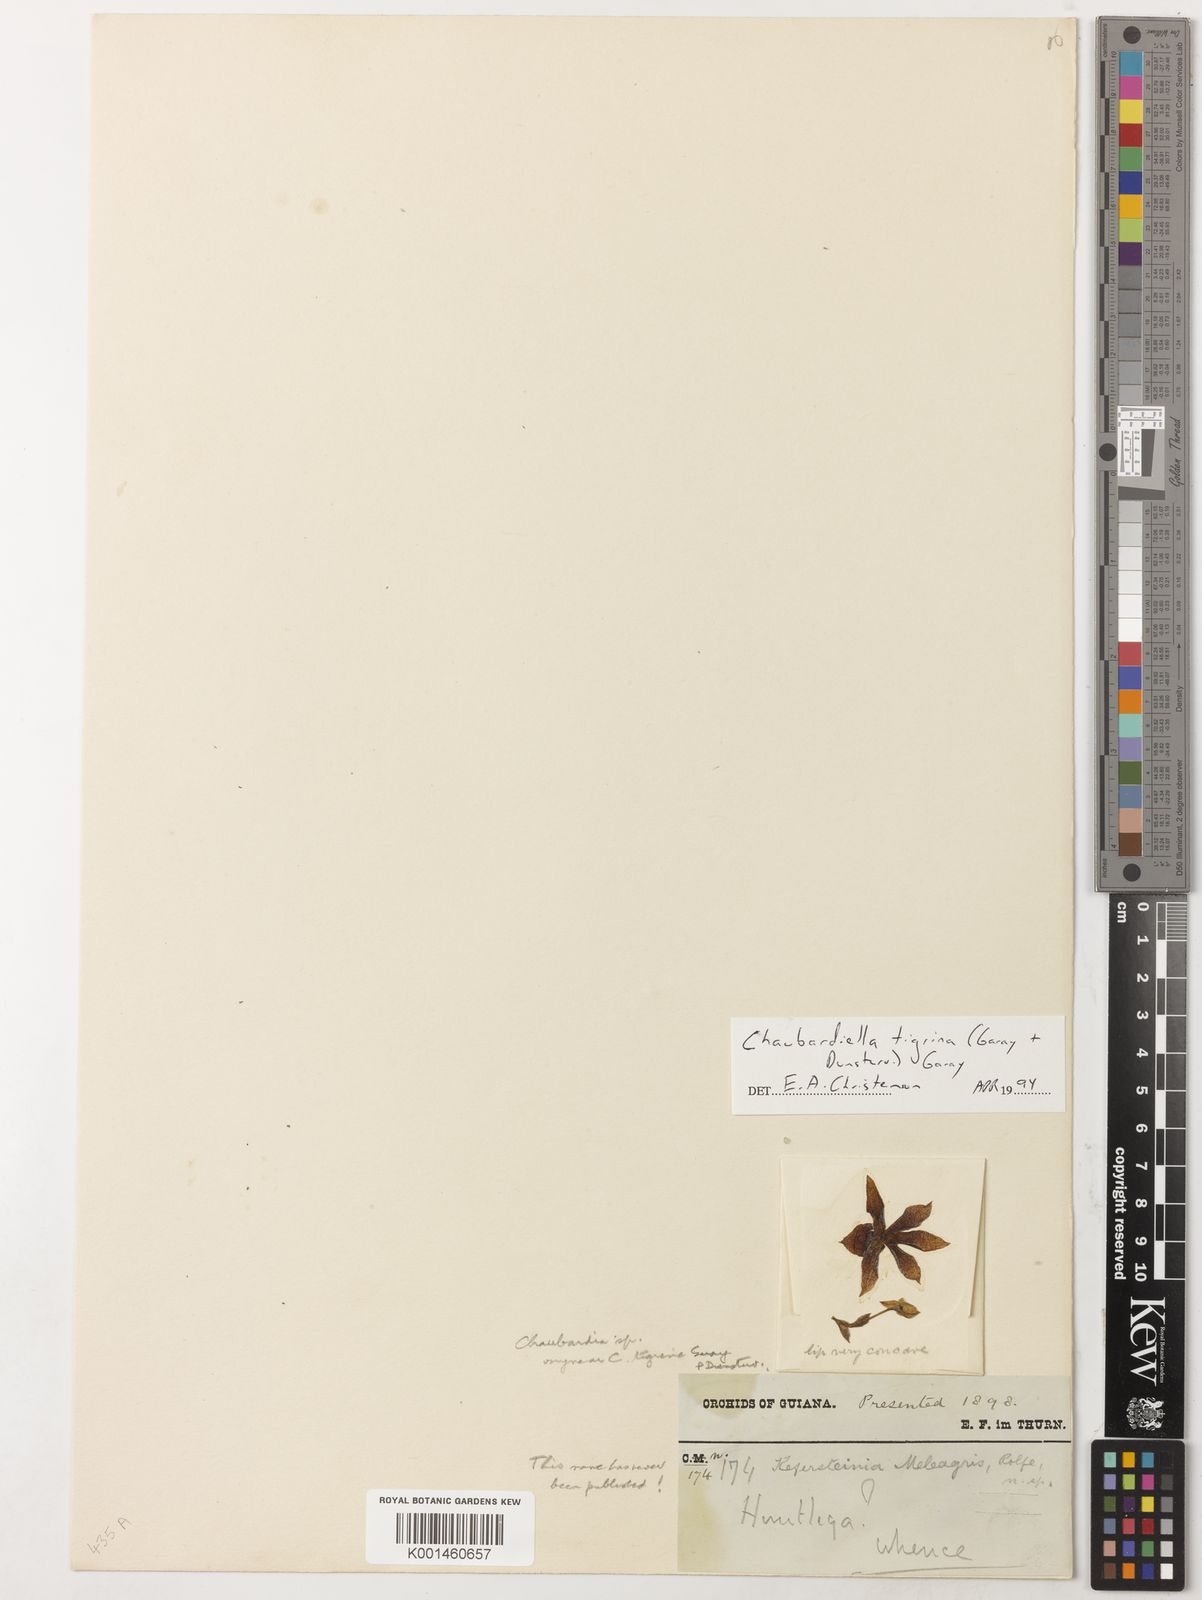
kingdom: Plantae
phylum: Tracheophyta
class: Liliopsida
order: Asparagales
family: Orchidaceae
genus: Chaubardiella
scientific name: Chaubardiella tigrina
